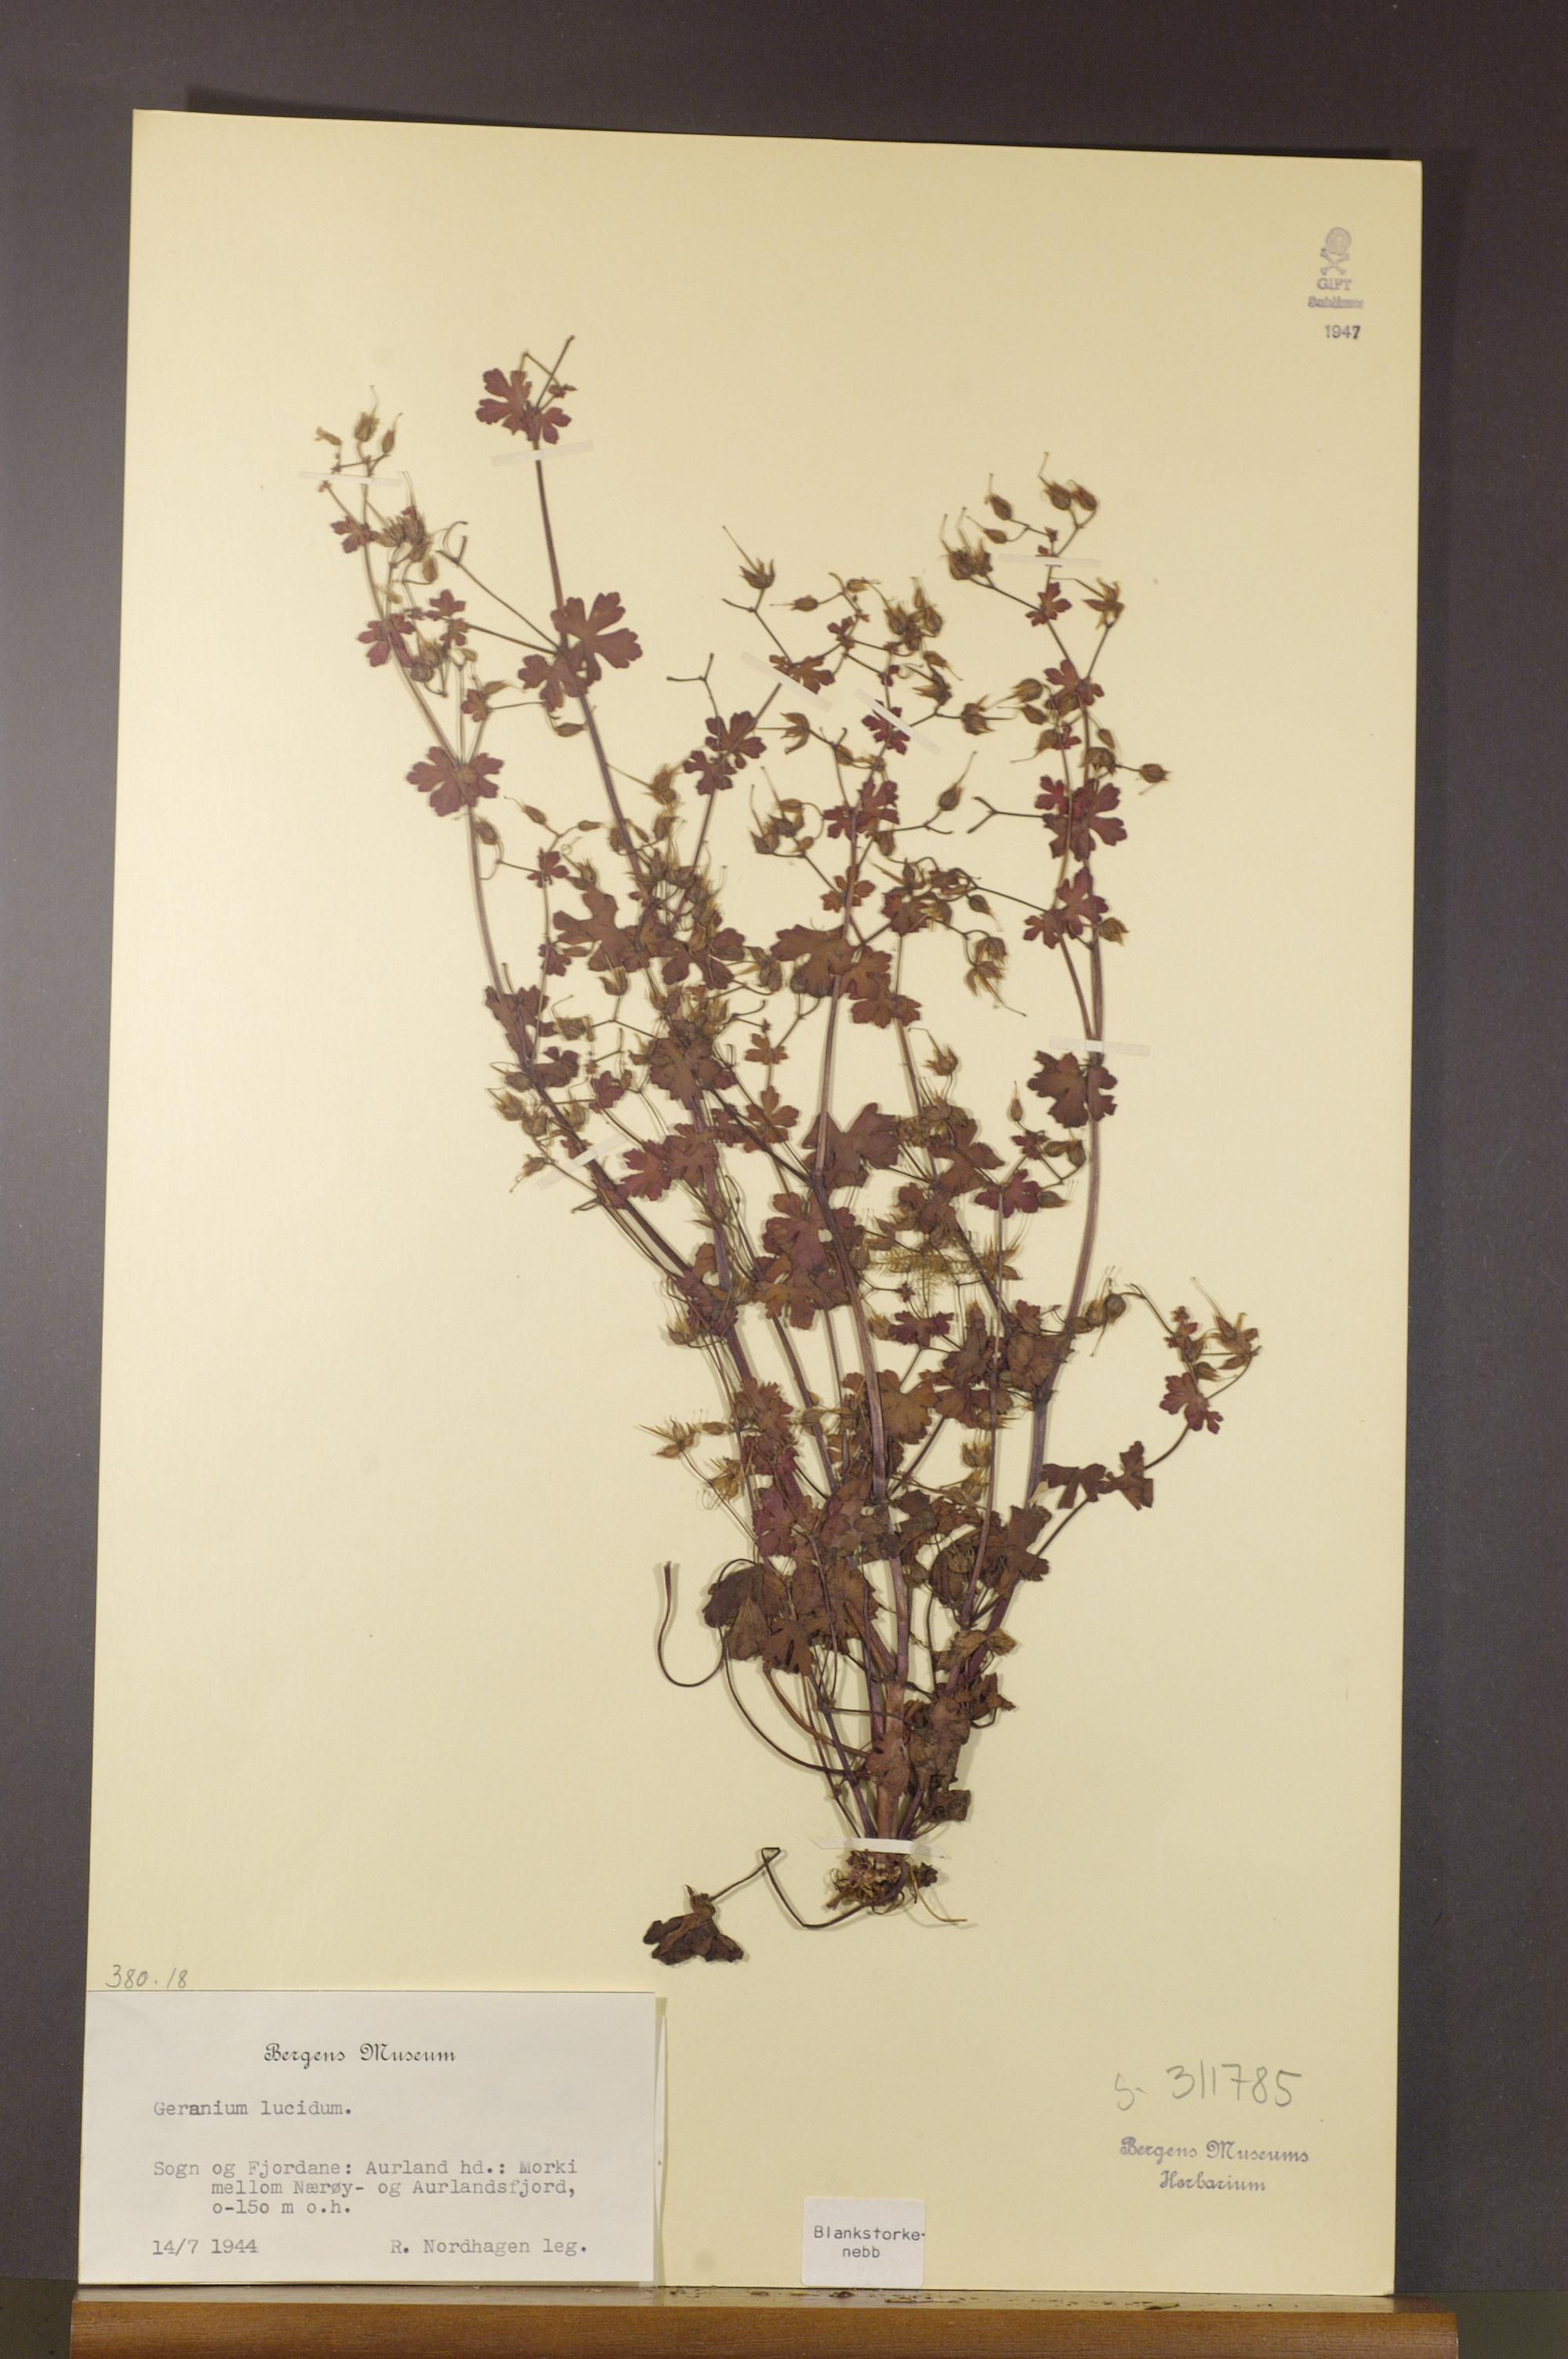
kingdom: Plantae
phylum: Tracheophyta
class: Magnoliopsida
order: Geraniales
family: Geraniaceae
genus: Geranium
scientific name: Geranium lucidum
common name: Shining crane's-bill
